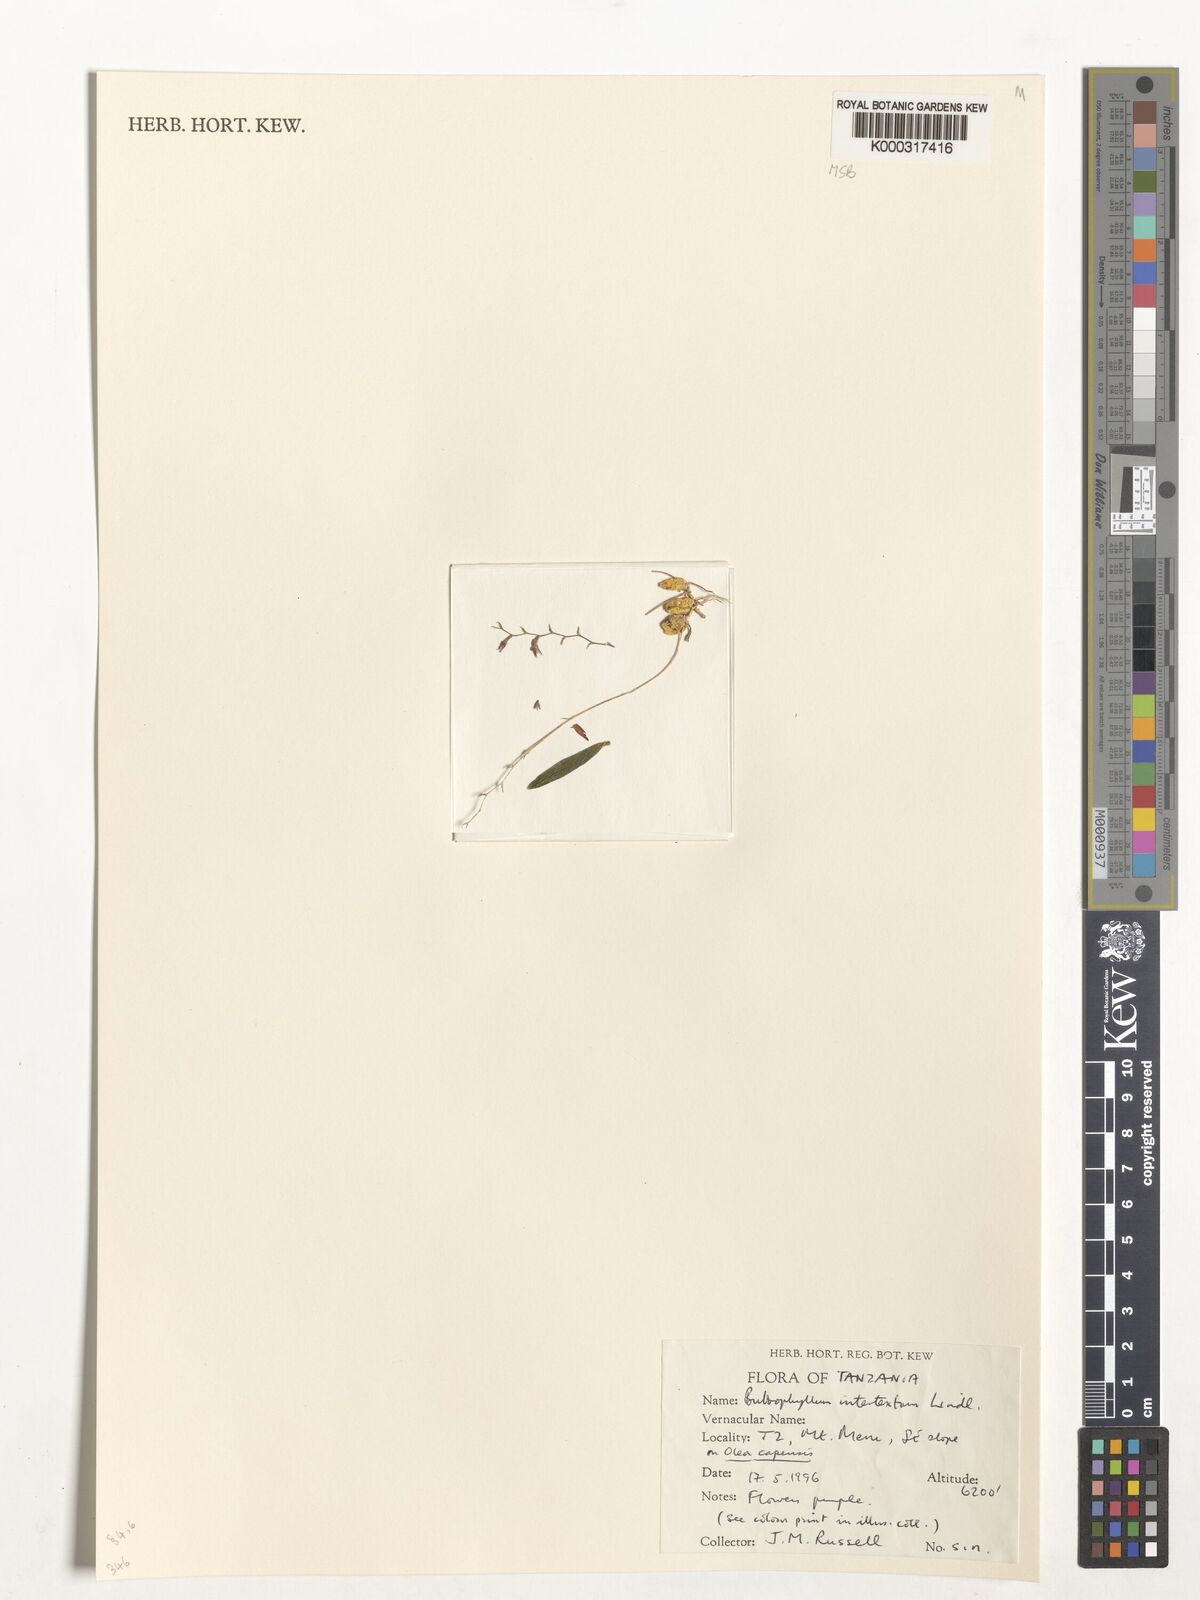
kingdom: Plantae
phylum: Tracheophyta
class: Liliopsida
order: Asparagales
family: Orchidaceae
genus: Bulbophyllum
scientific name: Bulbophyllum intertextum
